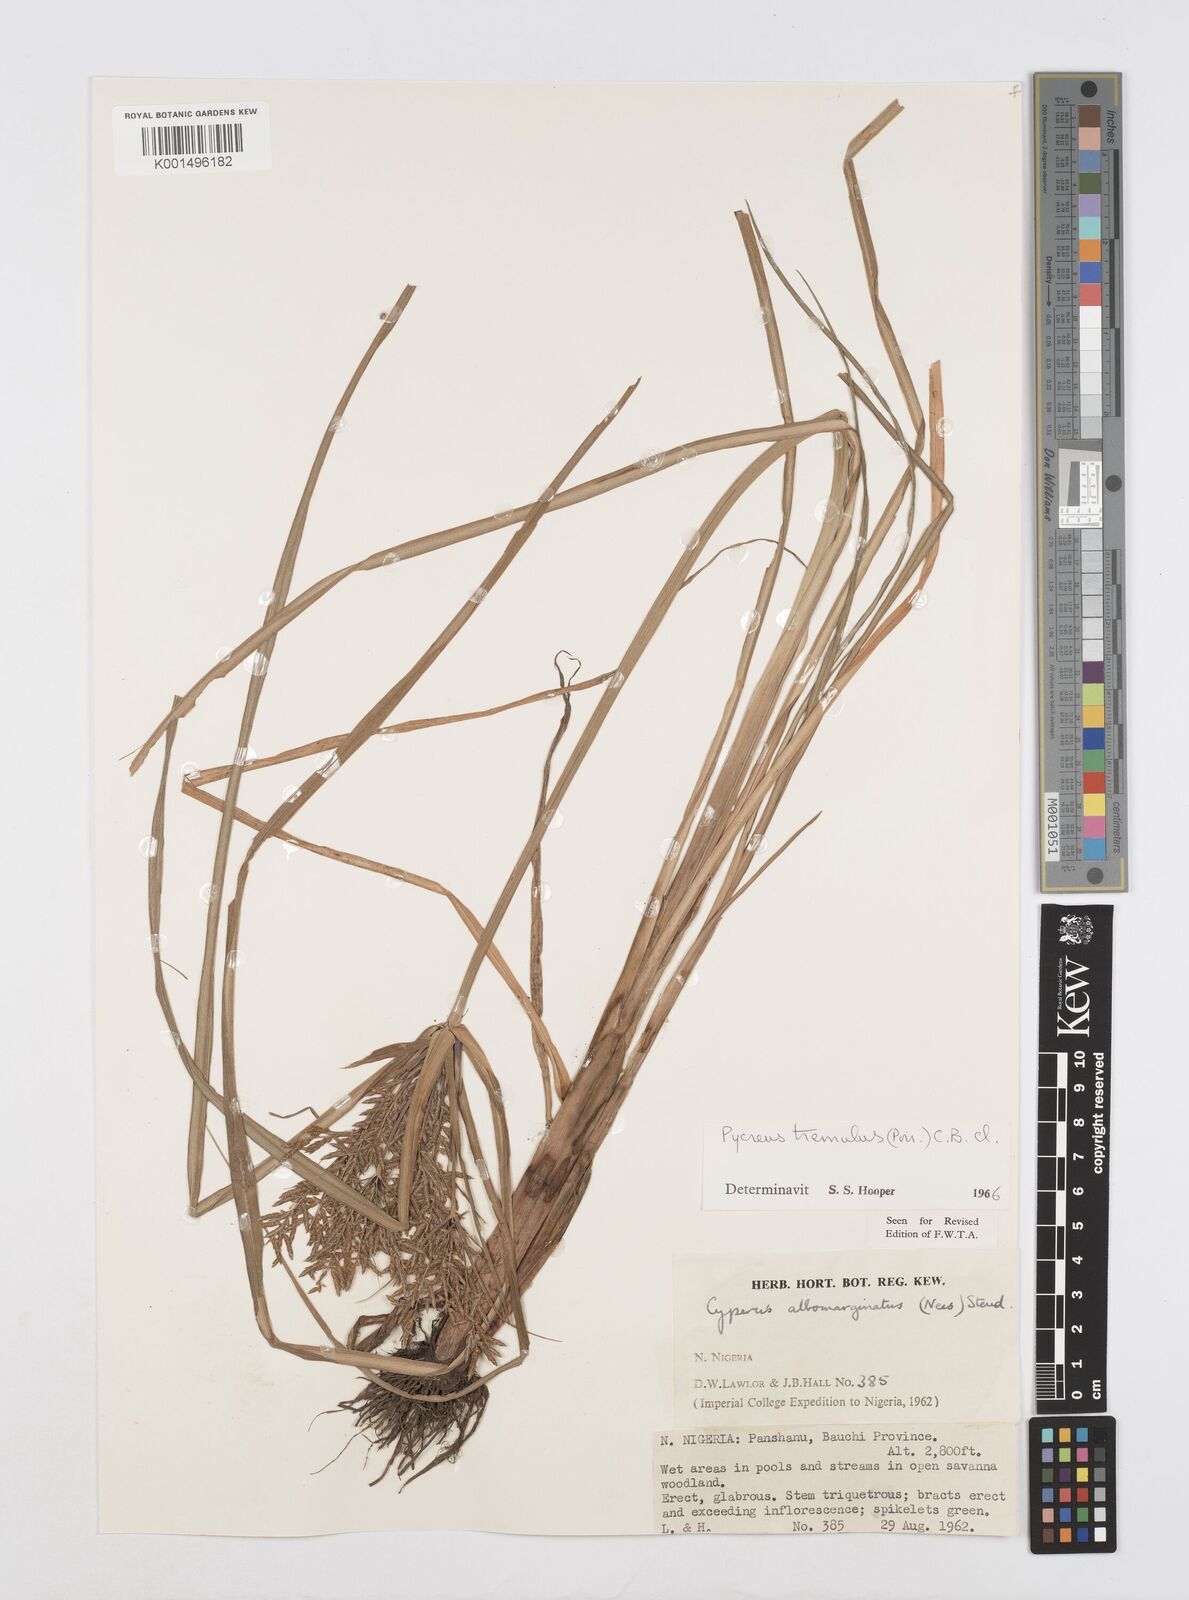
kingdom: Plantae
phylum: Tracheophyta
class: Liliopsida
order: Poales
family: Cyperaceae
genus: Cyperus
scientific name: Cyperus macrostachyos
